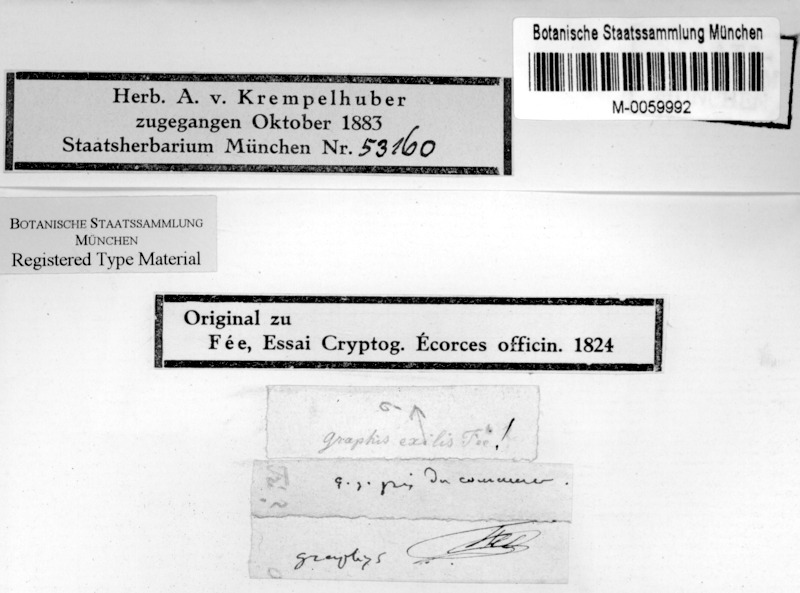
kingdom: Fungi
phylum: Ascomycota
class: Lecanoromycetes
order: Ostropales
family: Graphidaceae
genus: Phaeographina
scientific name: Phaeographina
